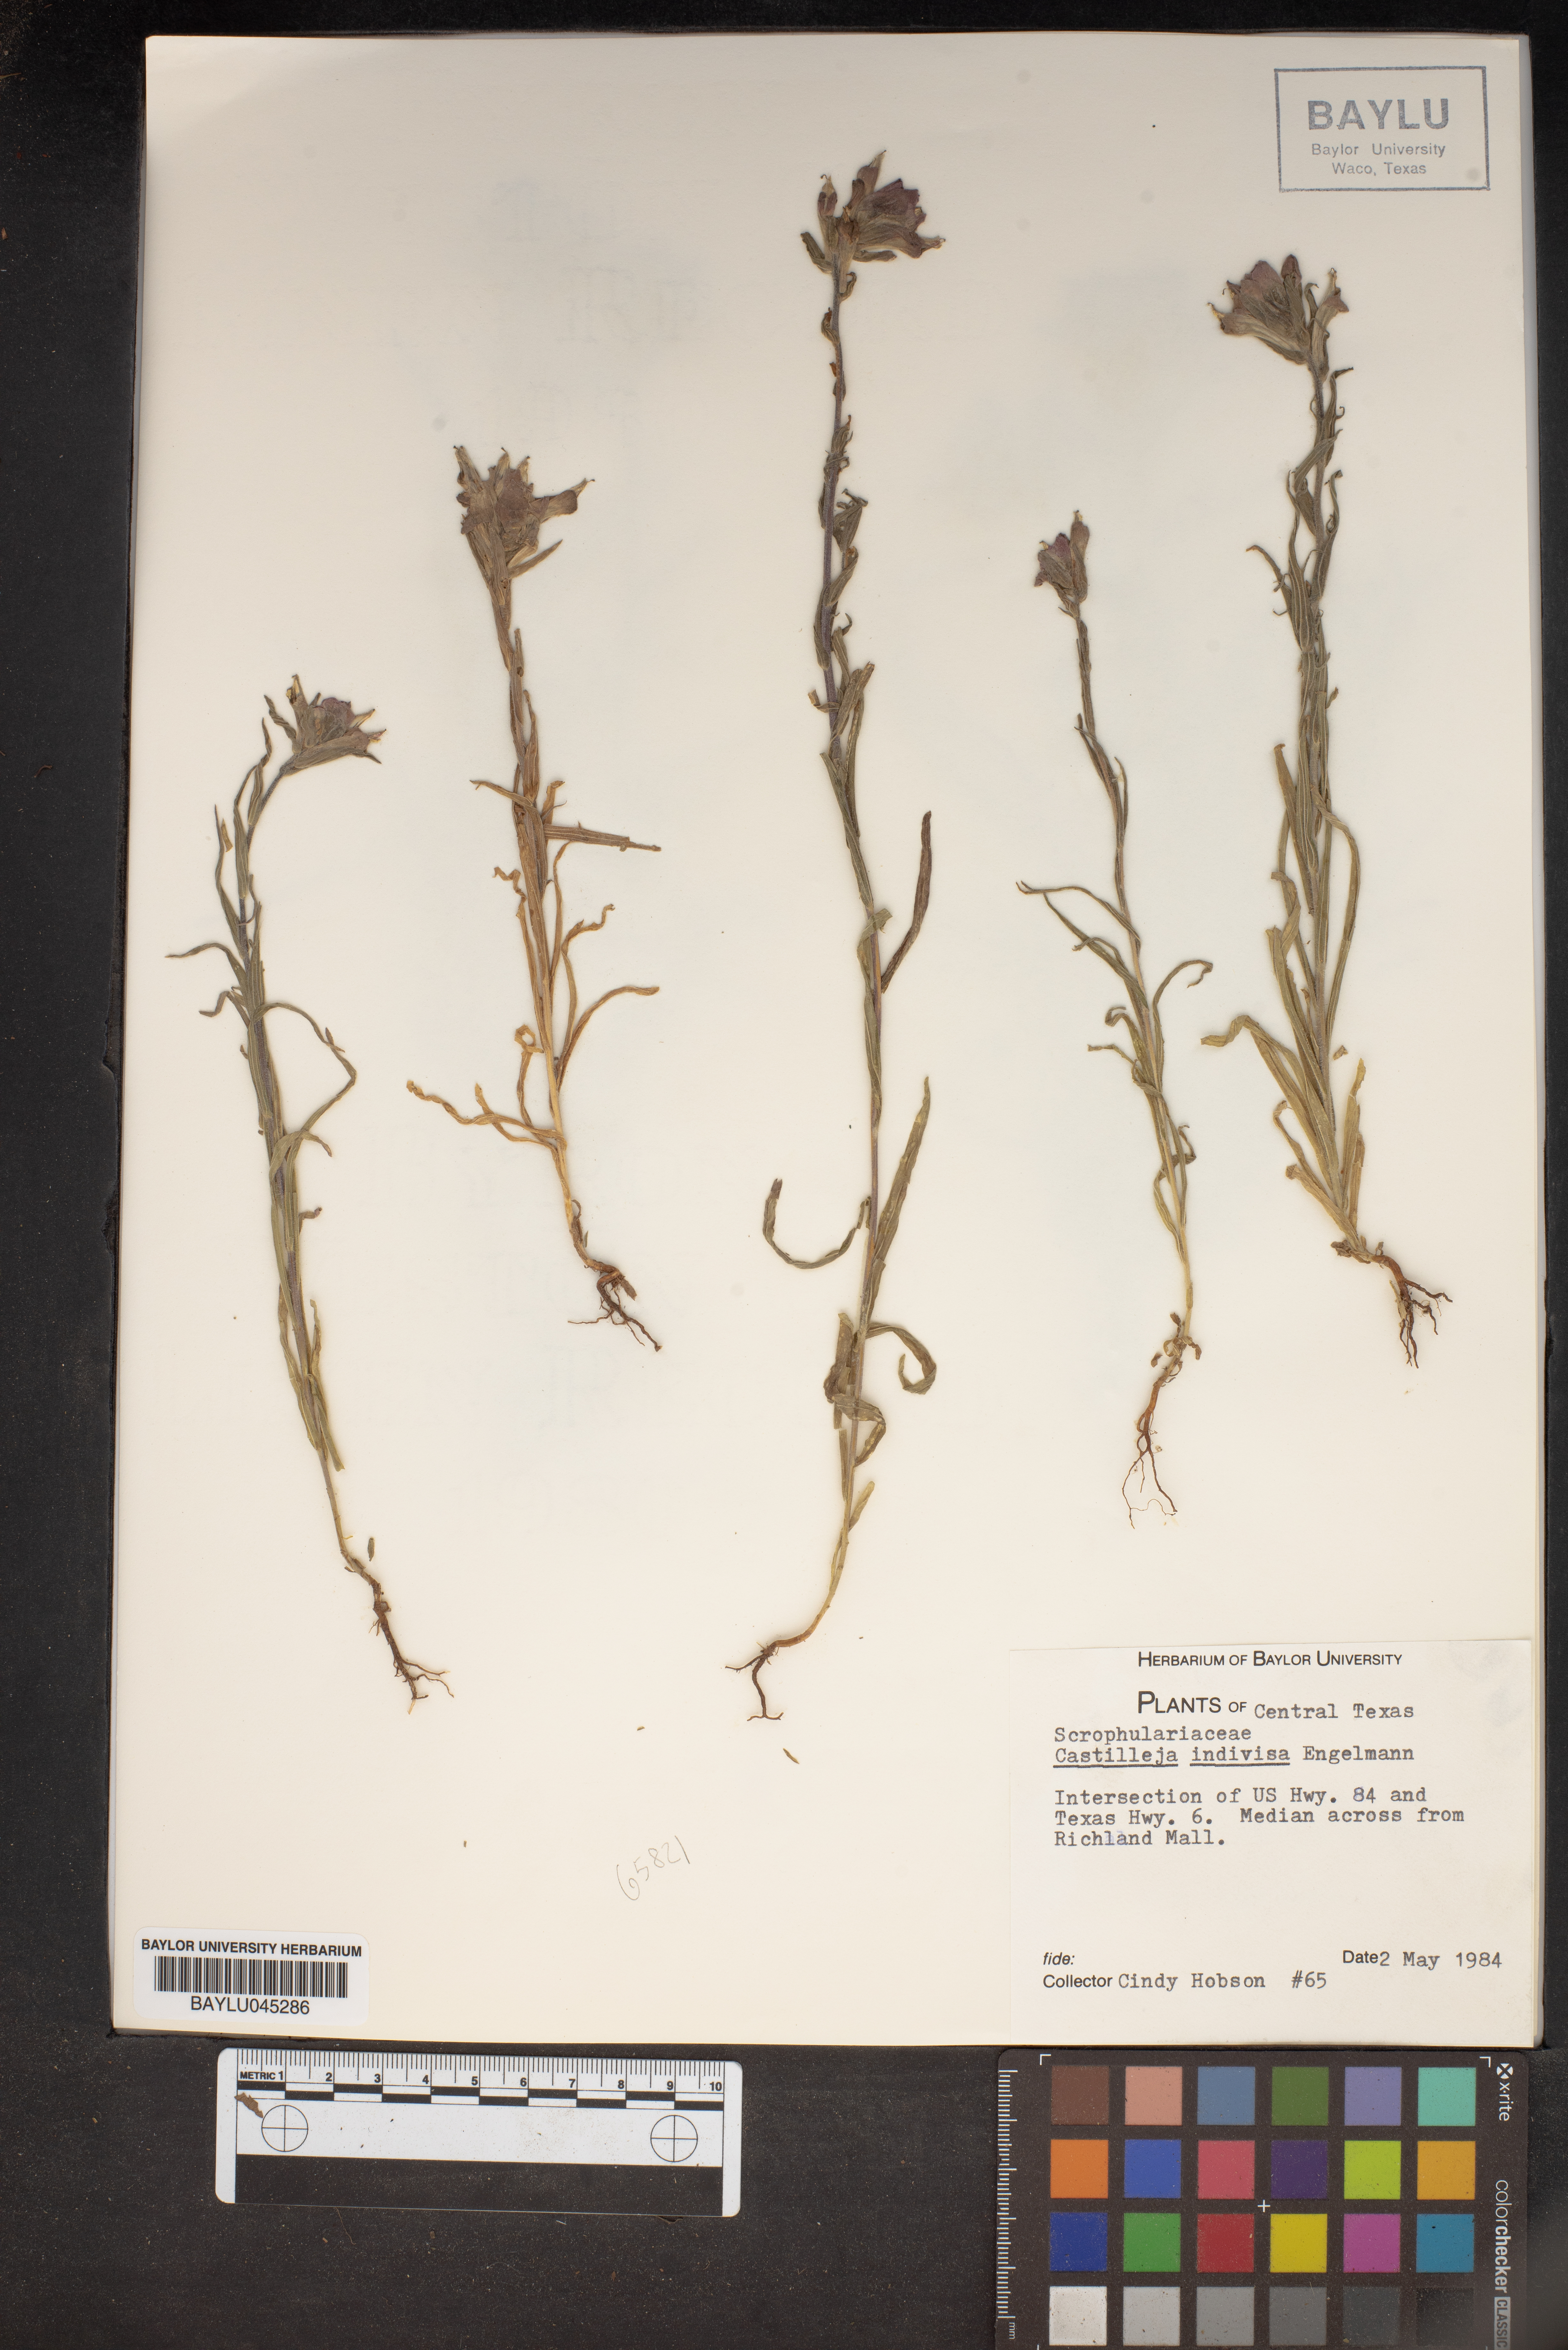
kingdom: Plantae
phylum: Tracheophyta
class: Magnoliopsida
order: Lamiales
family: Orobanchaceae
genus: Castilleja
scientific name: Castilleja indivisa
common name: Texas paintbrush
